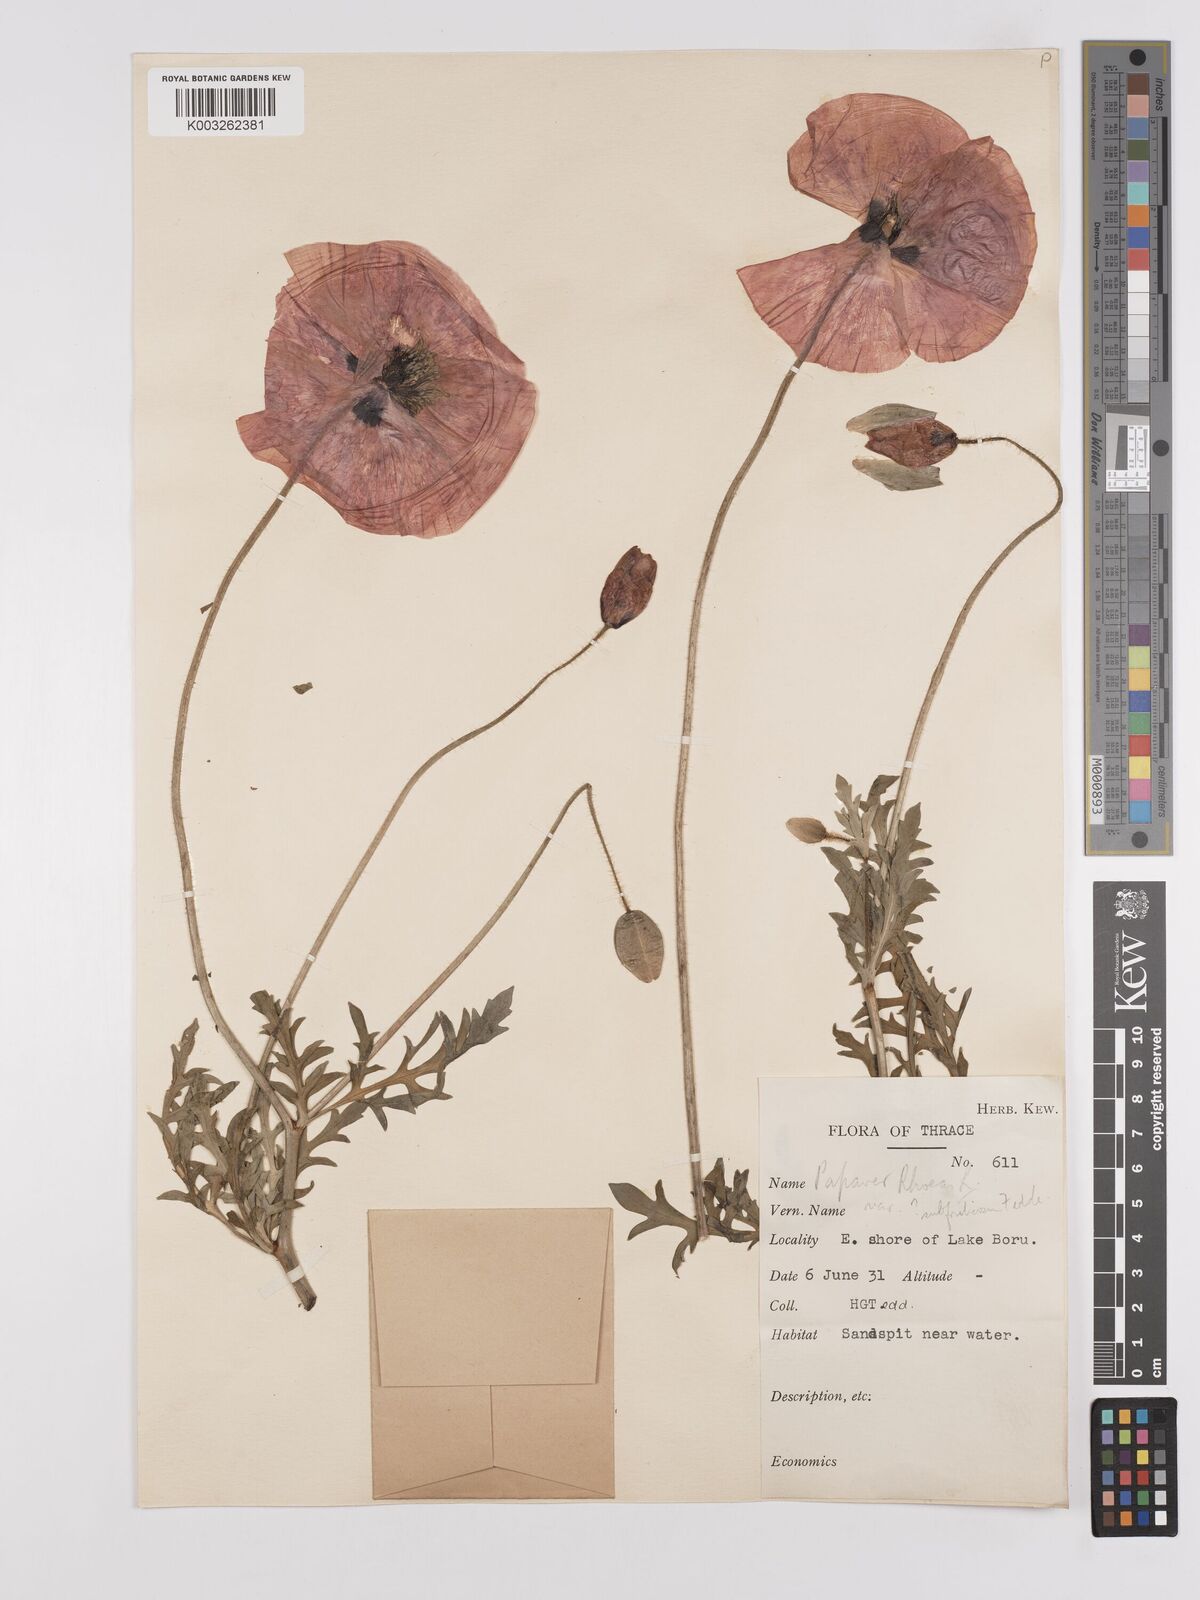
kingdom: Plantae
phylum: Tracheophyta
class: Magnoliopsida
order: Ranunculales
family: Papaveraceae
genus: Papaver
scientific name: Papaver rhoeas
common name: Corn poppy
